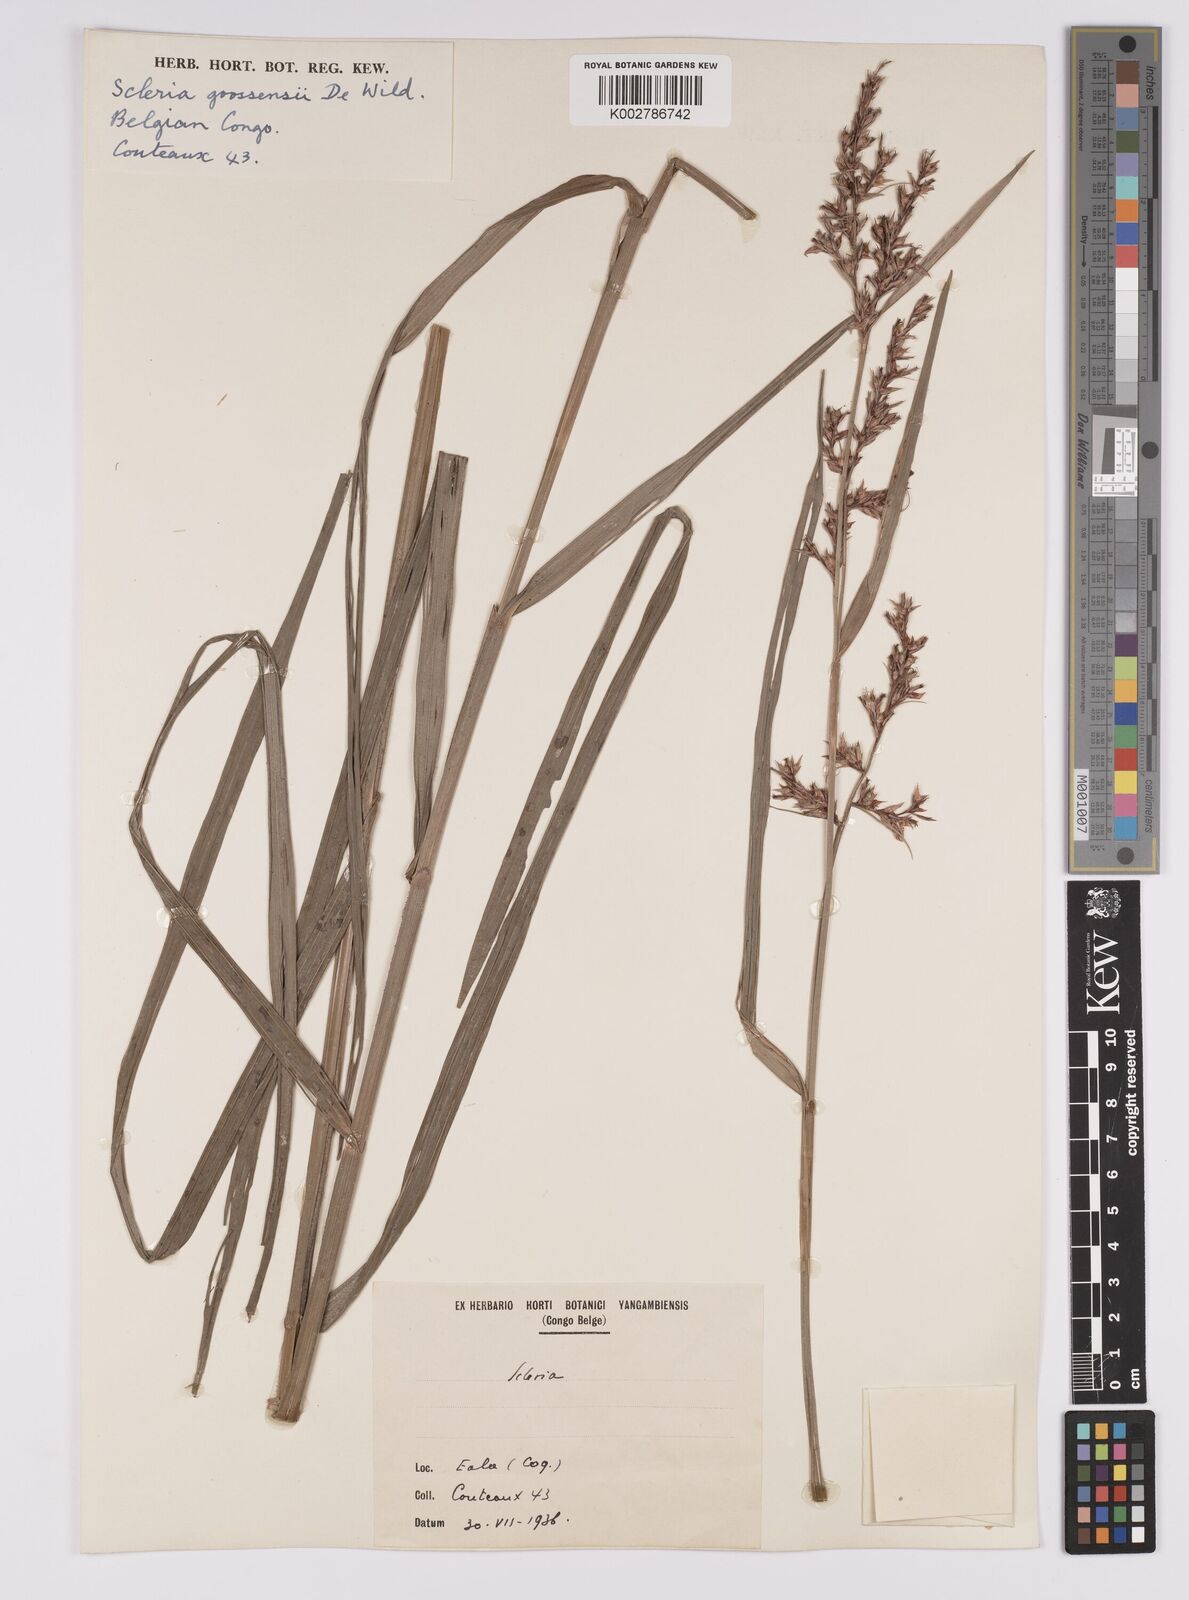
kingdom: Plantae
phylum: Tracheophyta
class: Liliopsida
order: Poales
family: Cyperaceae
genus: Scleria
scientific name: Scleria goossensii
